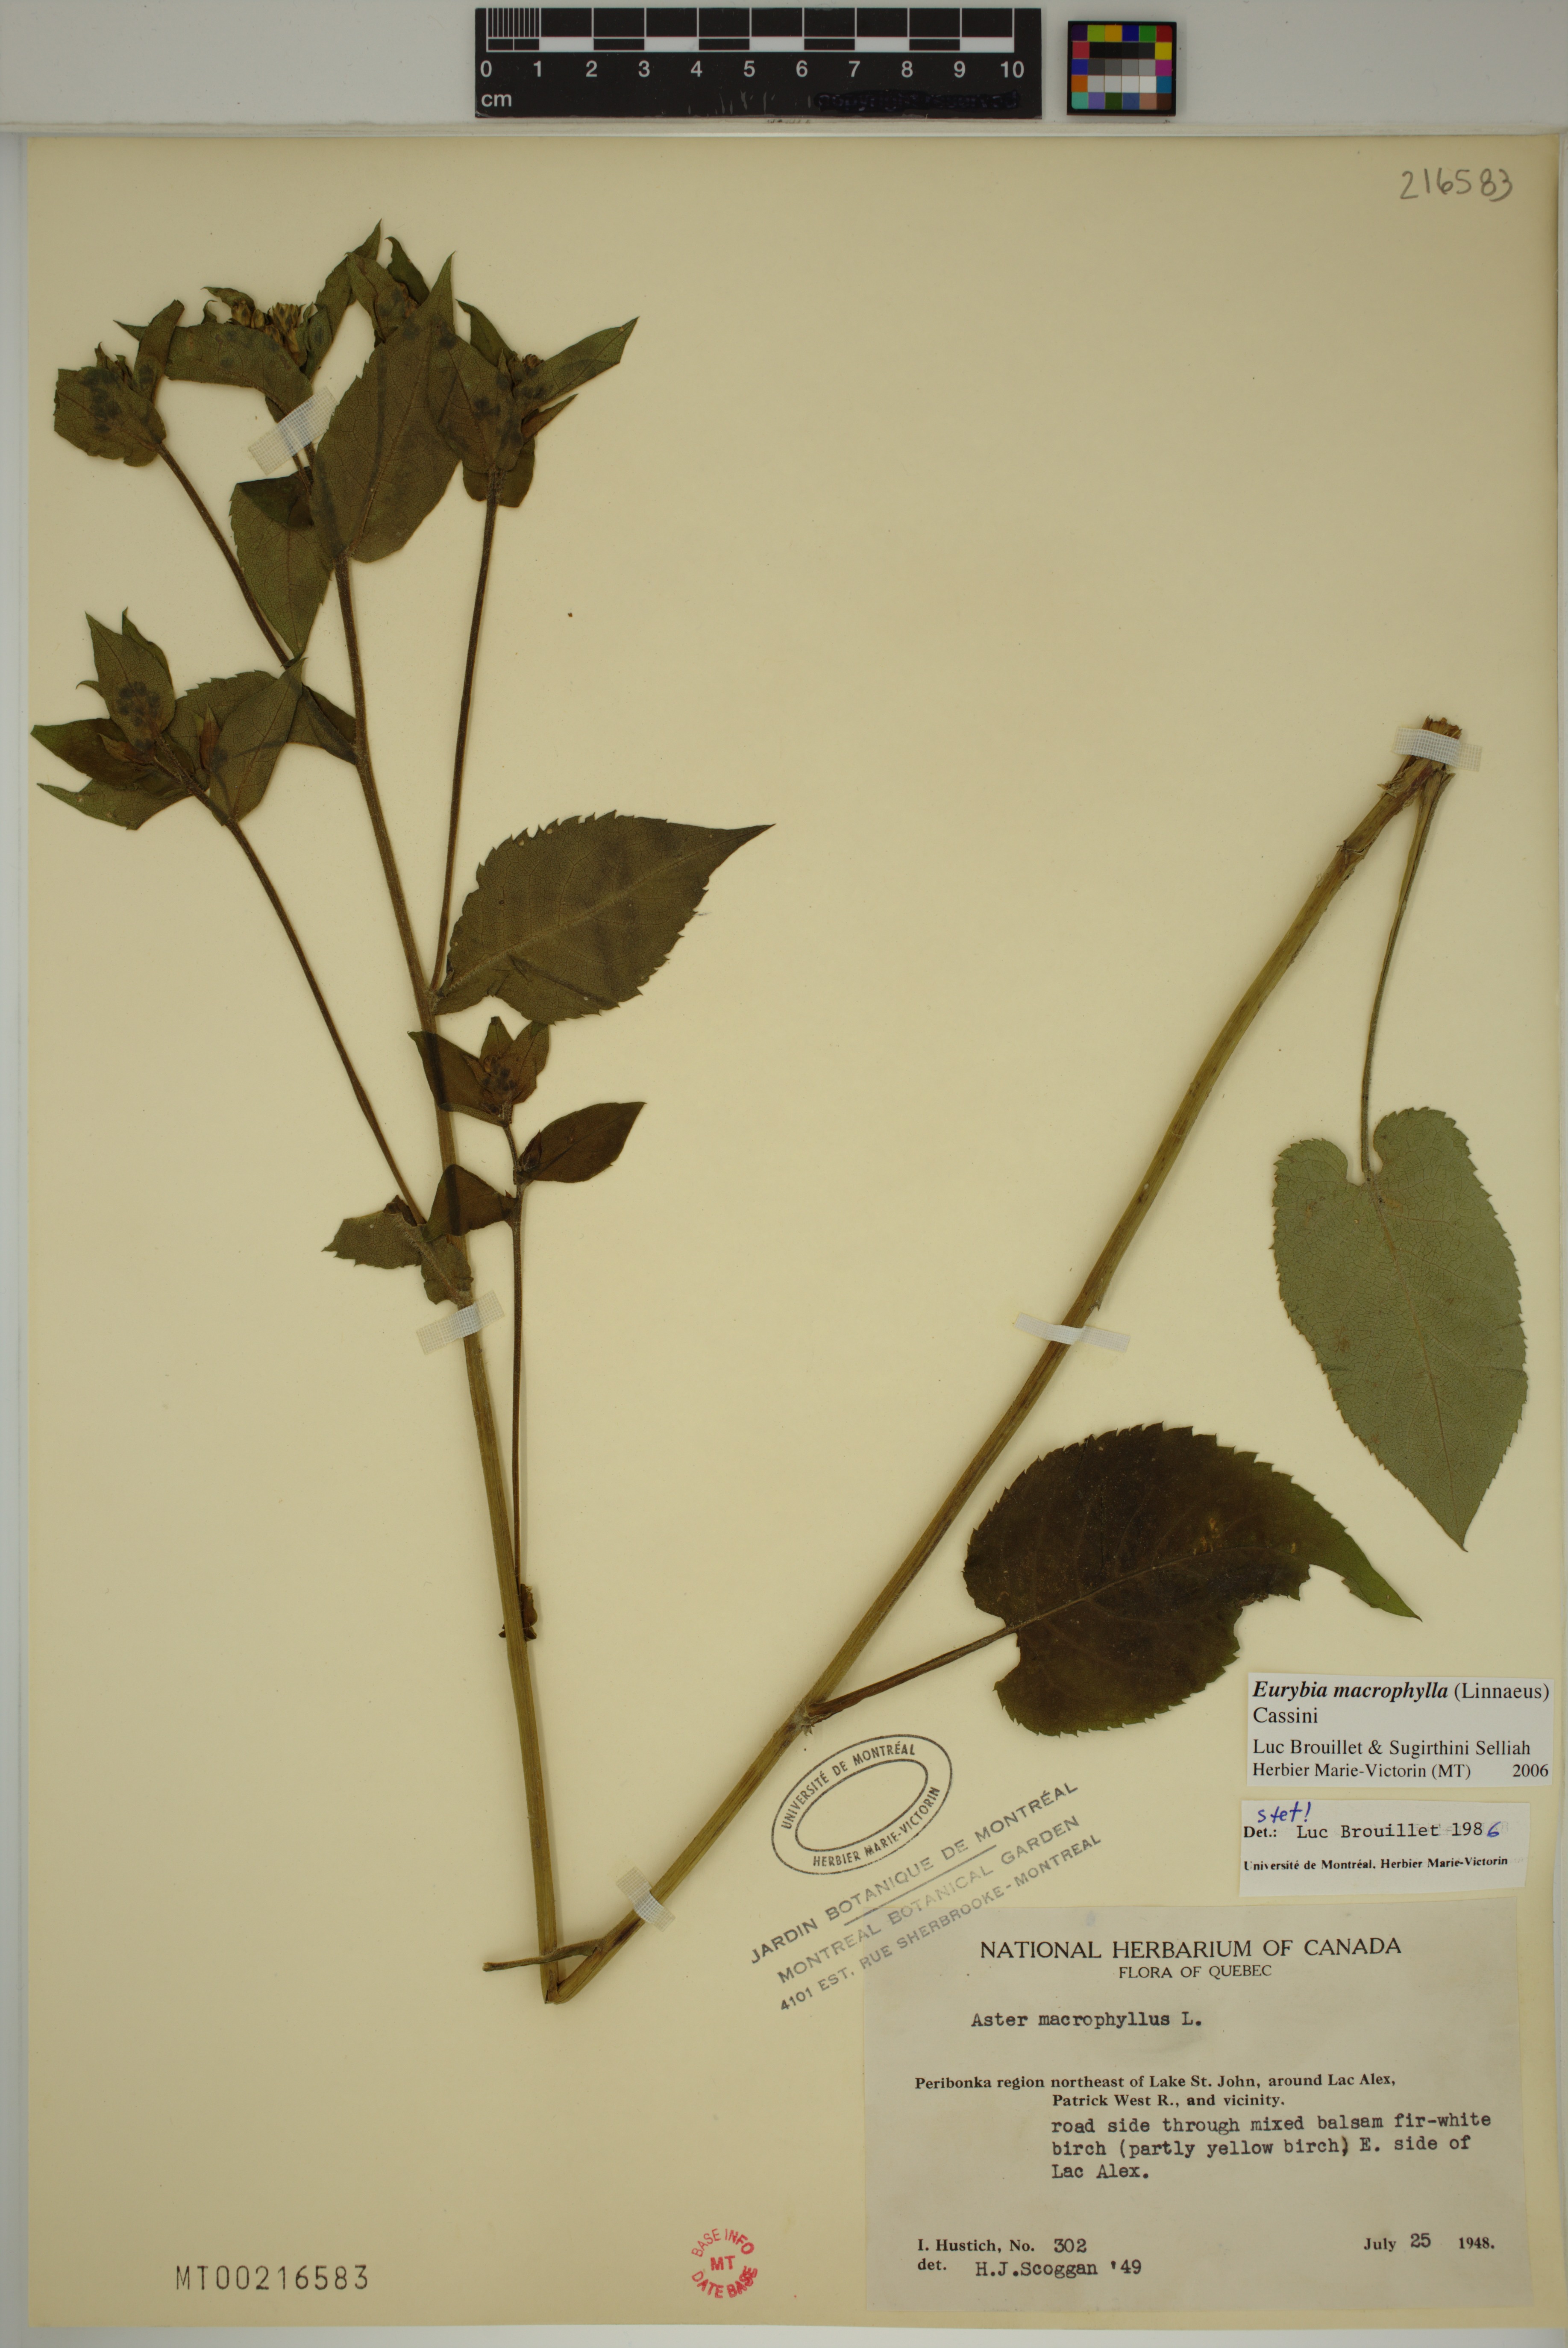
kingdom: Plantae
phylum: Tracheophyta
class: Magnoliopsida
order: Asterales
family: Asteraceae
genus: Eurybia
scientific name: Eurybia macrophylla
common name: Big-leaved aster
